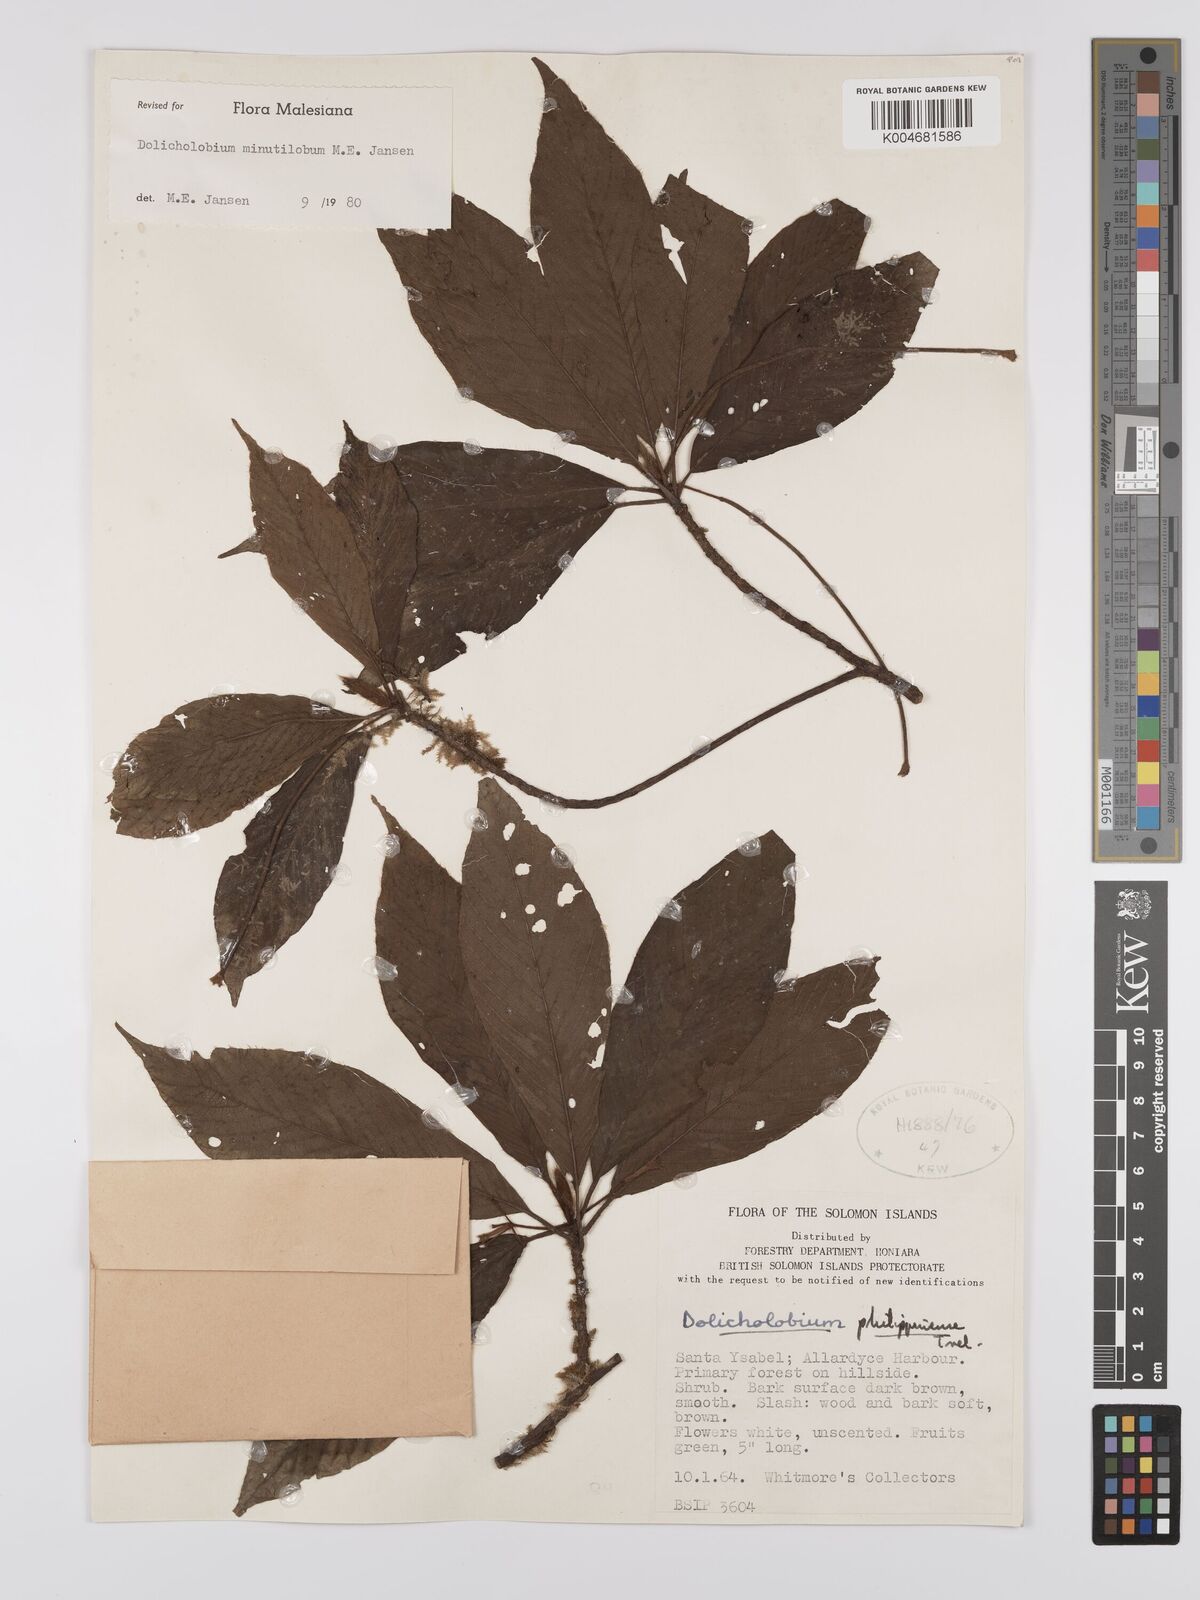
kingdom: Plantae
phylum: Tracheophyta
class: Magnoliopsida
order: Gentianales
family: Rubiaceae
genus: Dolicholobium
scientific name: Dolicholobium oblongifolium
